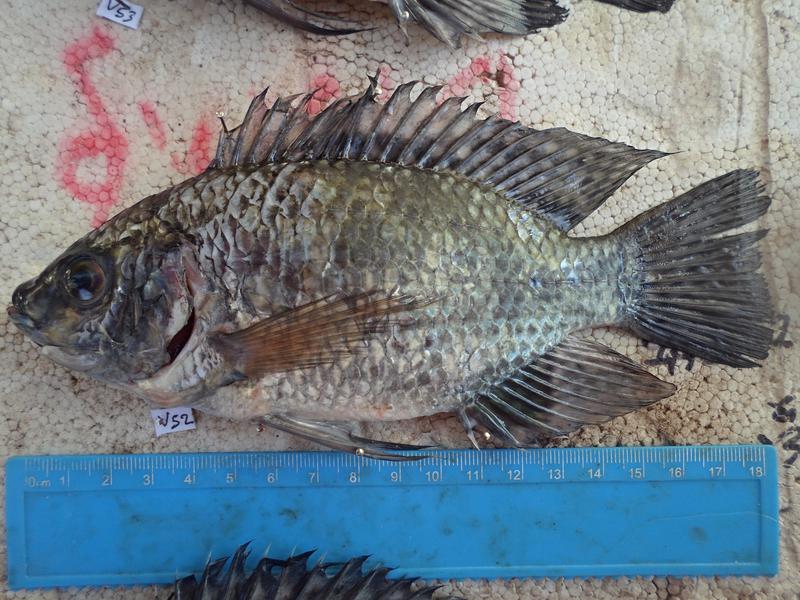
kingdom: Animalia
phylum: Chordata
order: Perciformes
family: Cichlidae
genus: Oreochromis
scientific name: Oreochromis leucostictus
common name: Blue spotted tilapia
